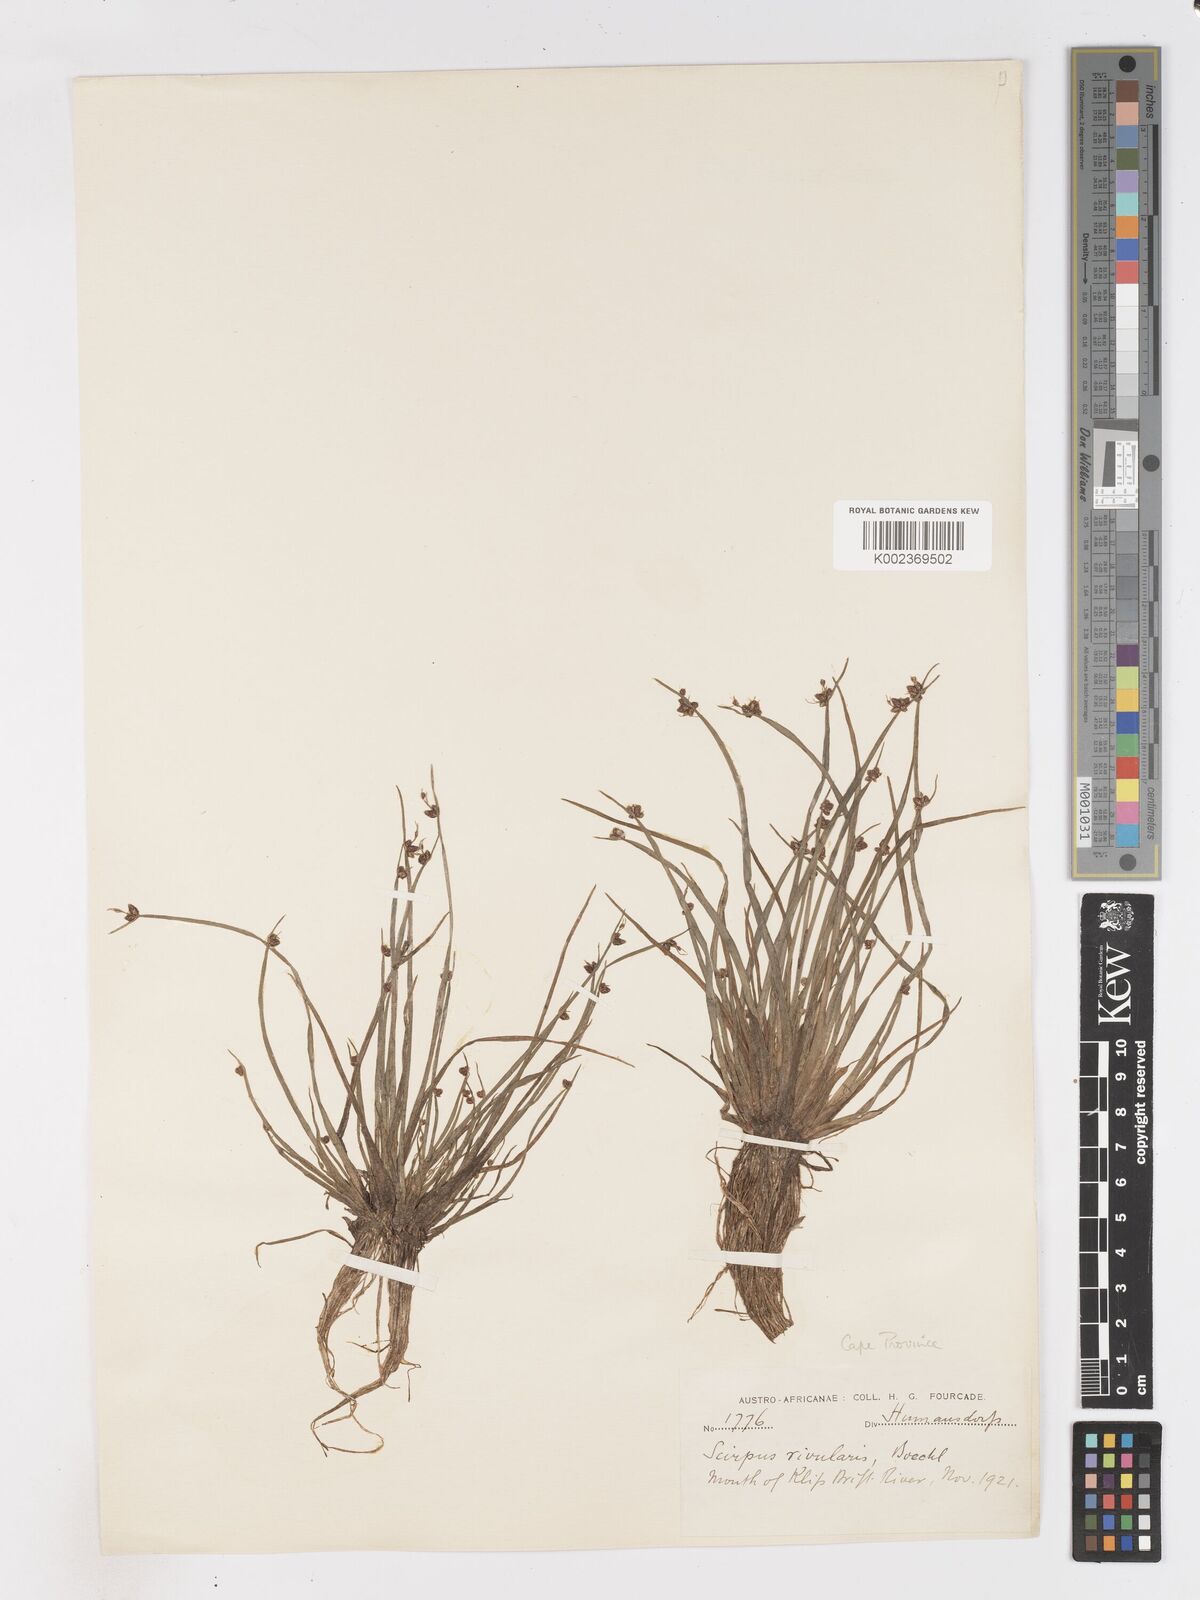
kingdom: Plantae
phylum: Tracheophyta
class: Liliopsida
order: Poales
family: Cyperaceae
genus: Isolepis
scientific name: Isolepis natans
